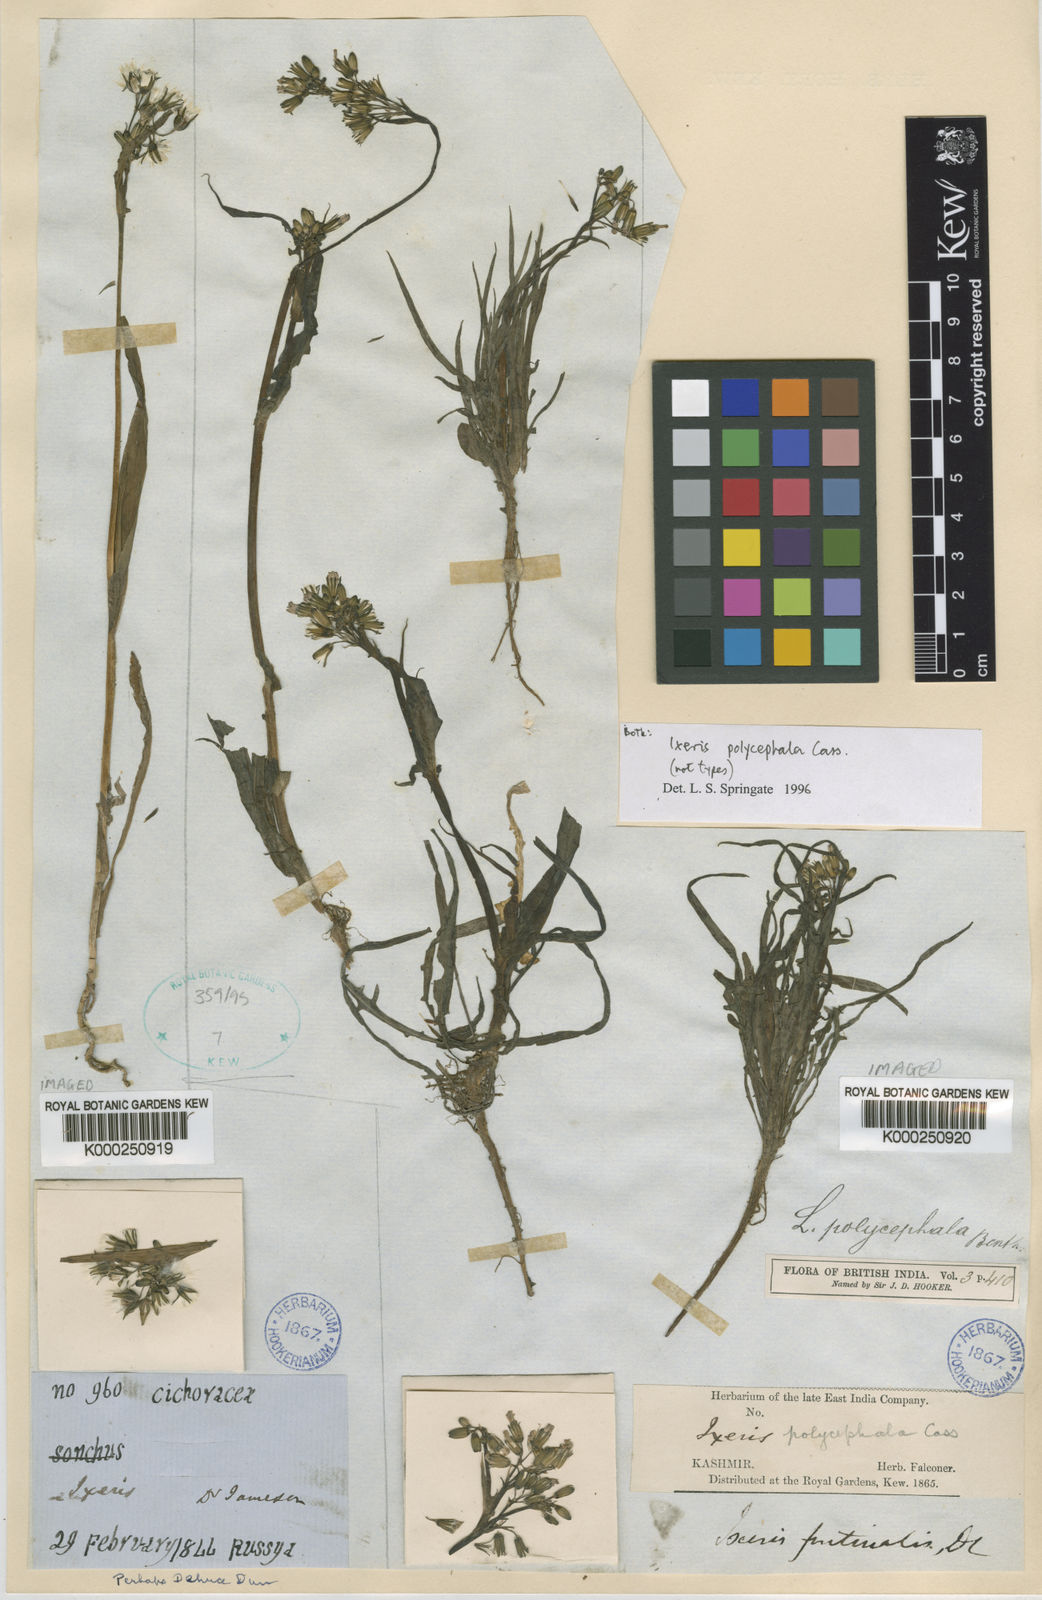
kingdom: Plantae
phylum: Tracheophyta
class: Magnoliopsida
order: Asterales
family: Asteraceae
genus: Ixeris
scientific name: Ixeris polycephala
